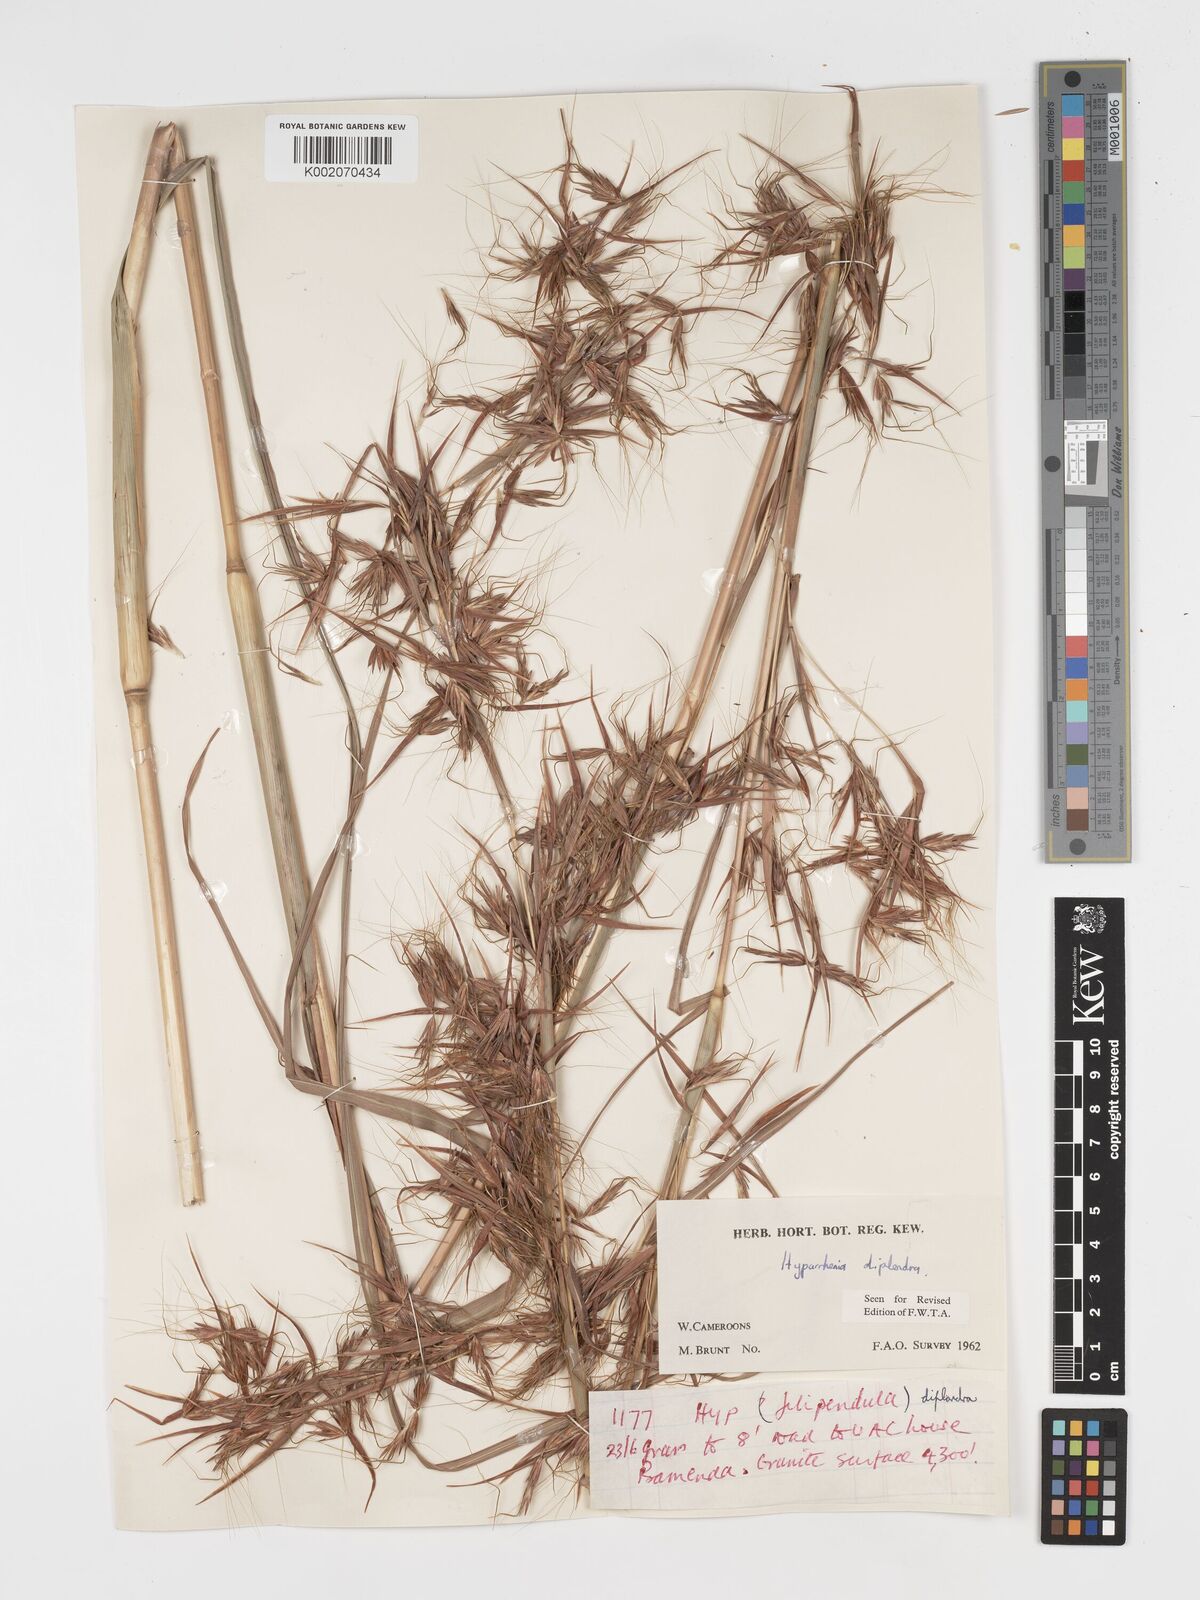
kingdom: Plantae
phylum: Tracheophyta
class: Liliopsida
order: Poales
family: Poaceae
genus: Hyparrhenia
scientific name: Hyparrhenia diplandra
